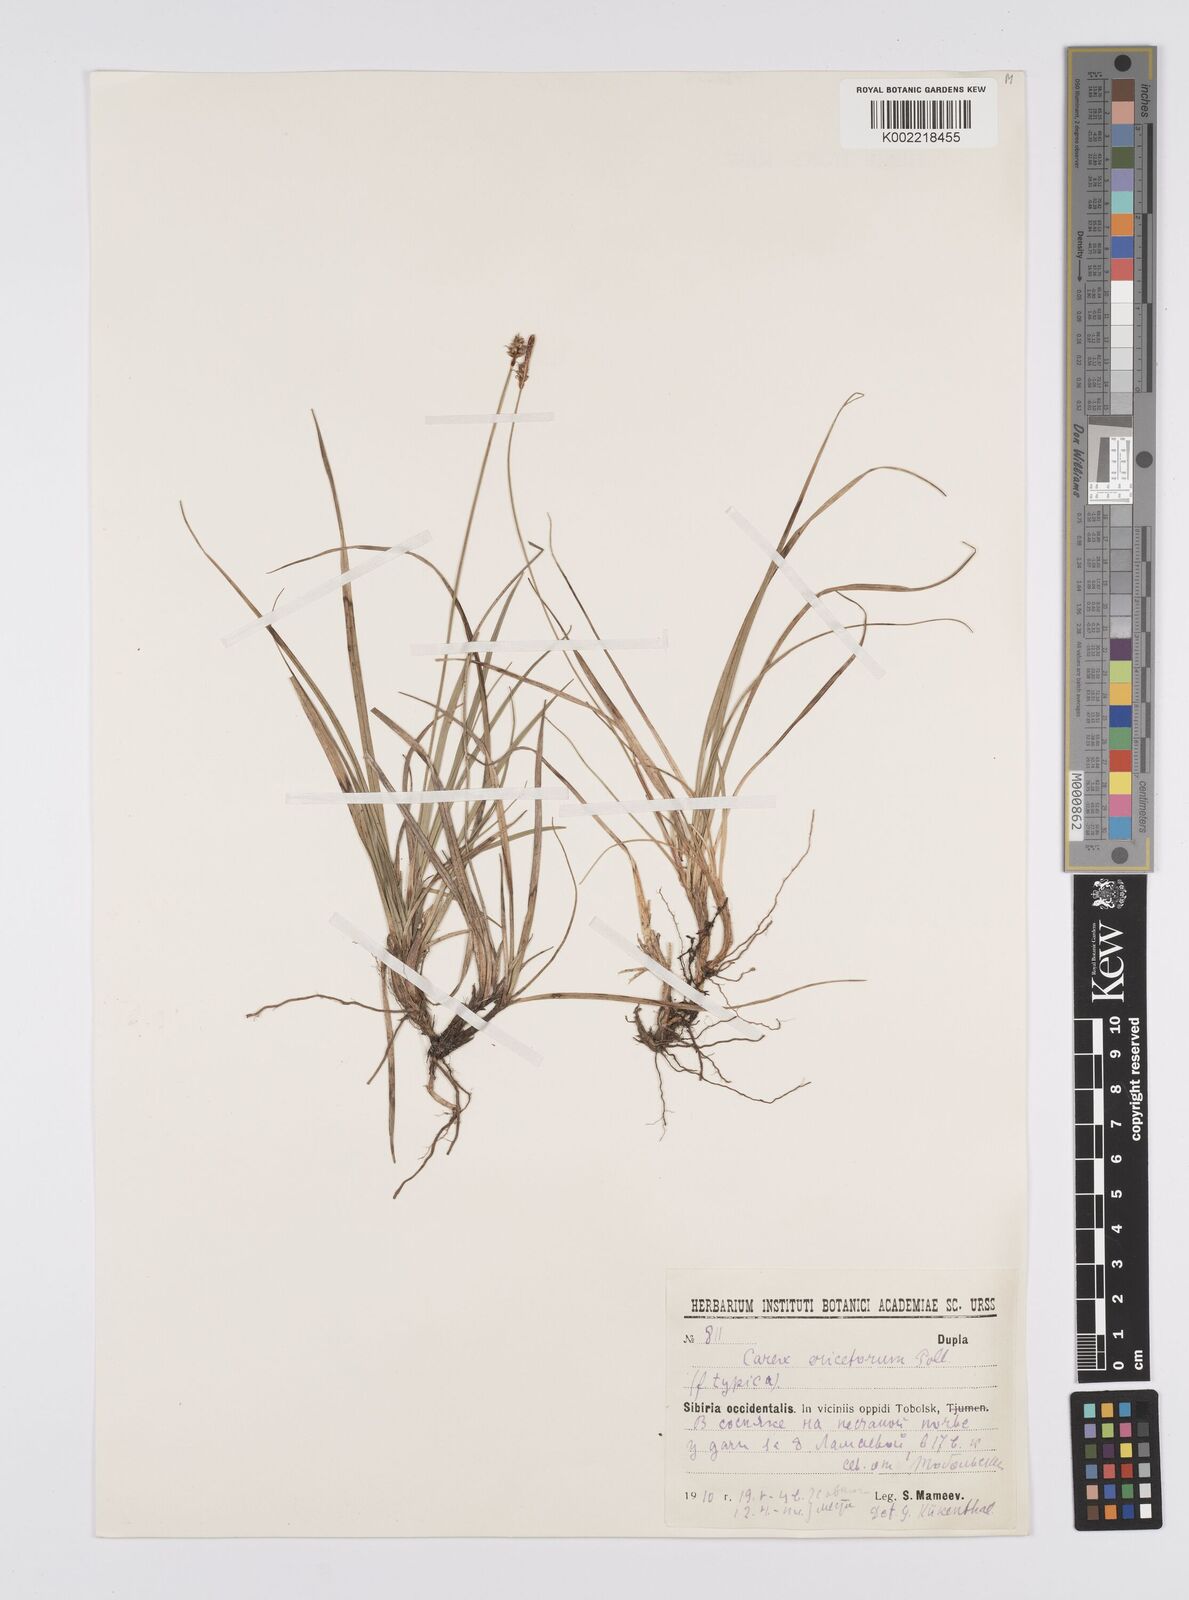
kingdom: Plantae
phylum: Tracheophyta
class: Liliopsida
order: Poales
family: Cyperaceae
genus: Carex
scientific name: Carex ericetorum
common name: Rare spring-sedge
